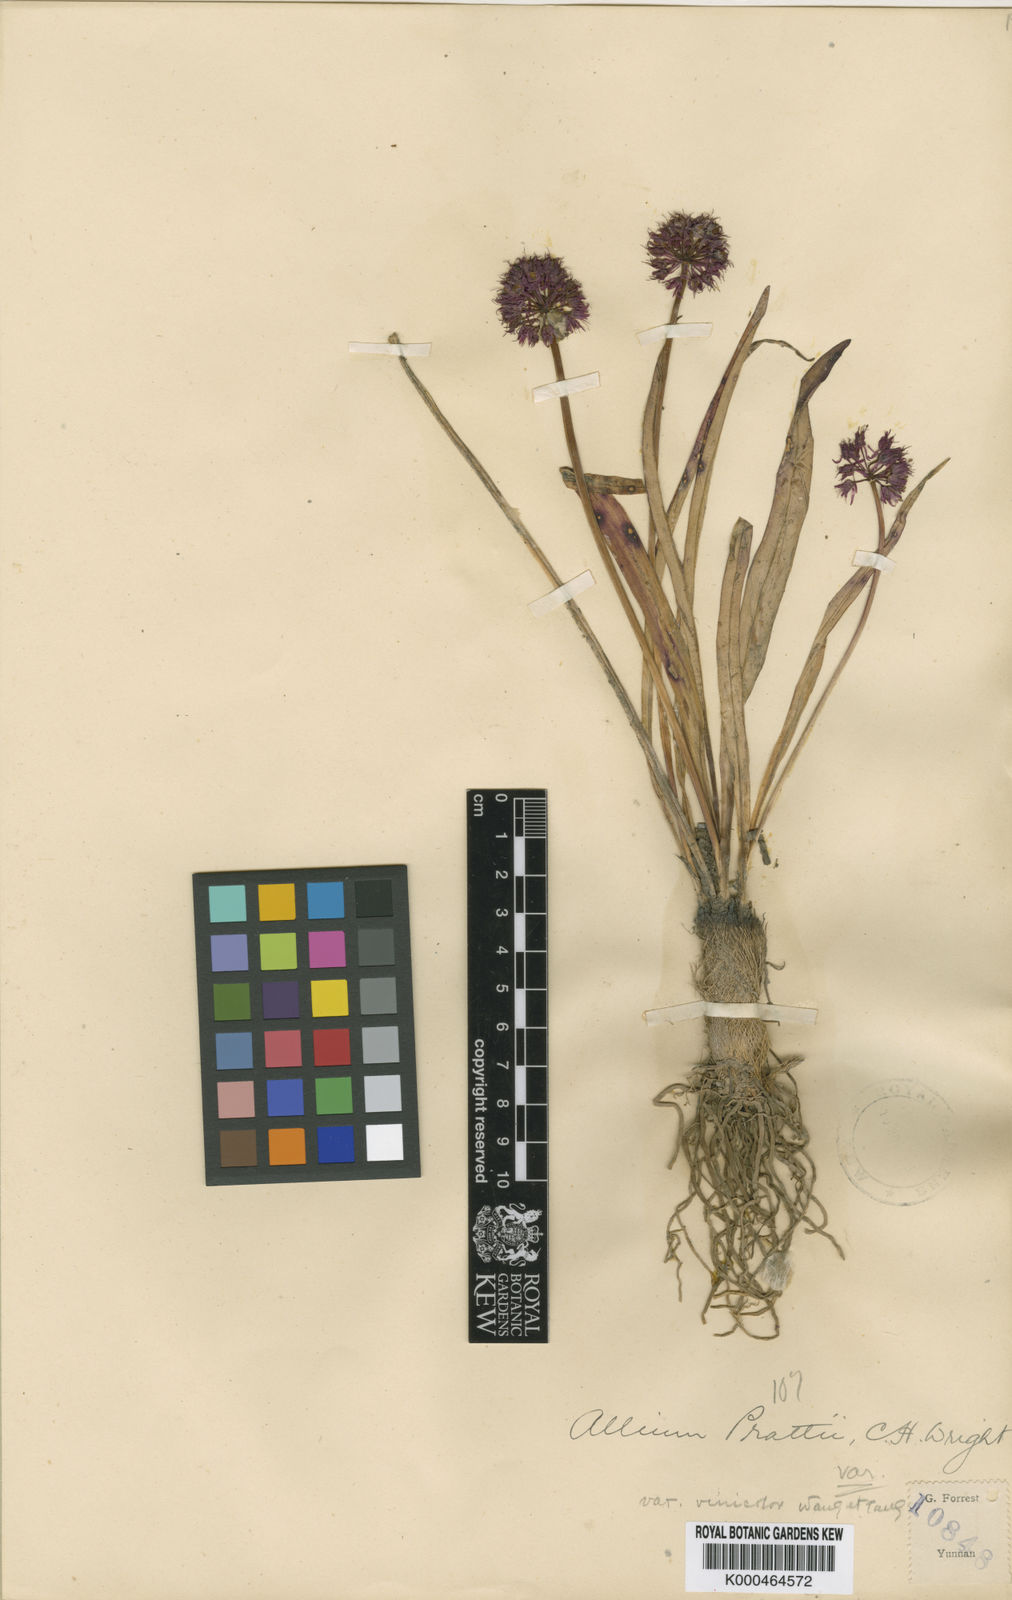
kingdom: Plantae
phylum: Tracheophyta
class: Liliopsida
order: Asparagales
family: Amaryllidaceae
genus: Allium
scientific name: Allium prattii
